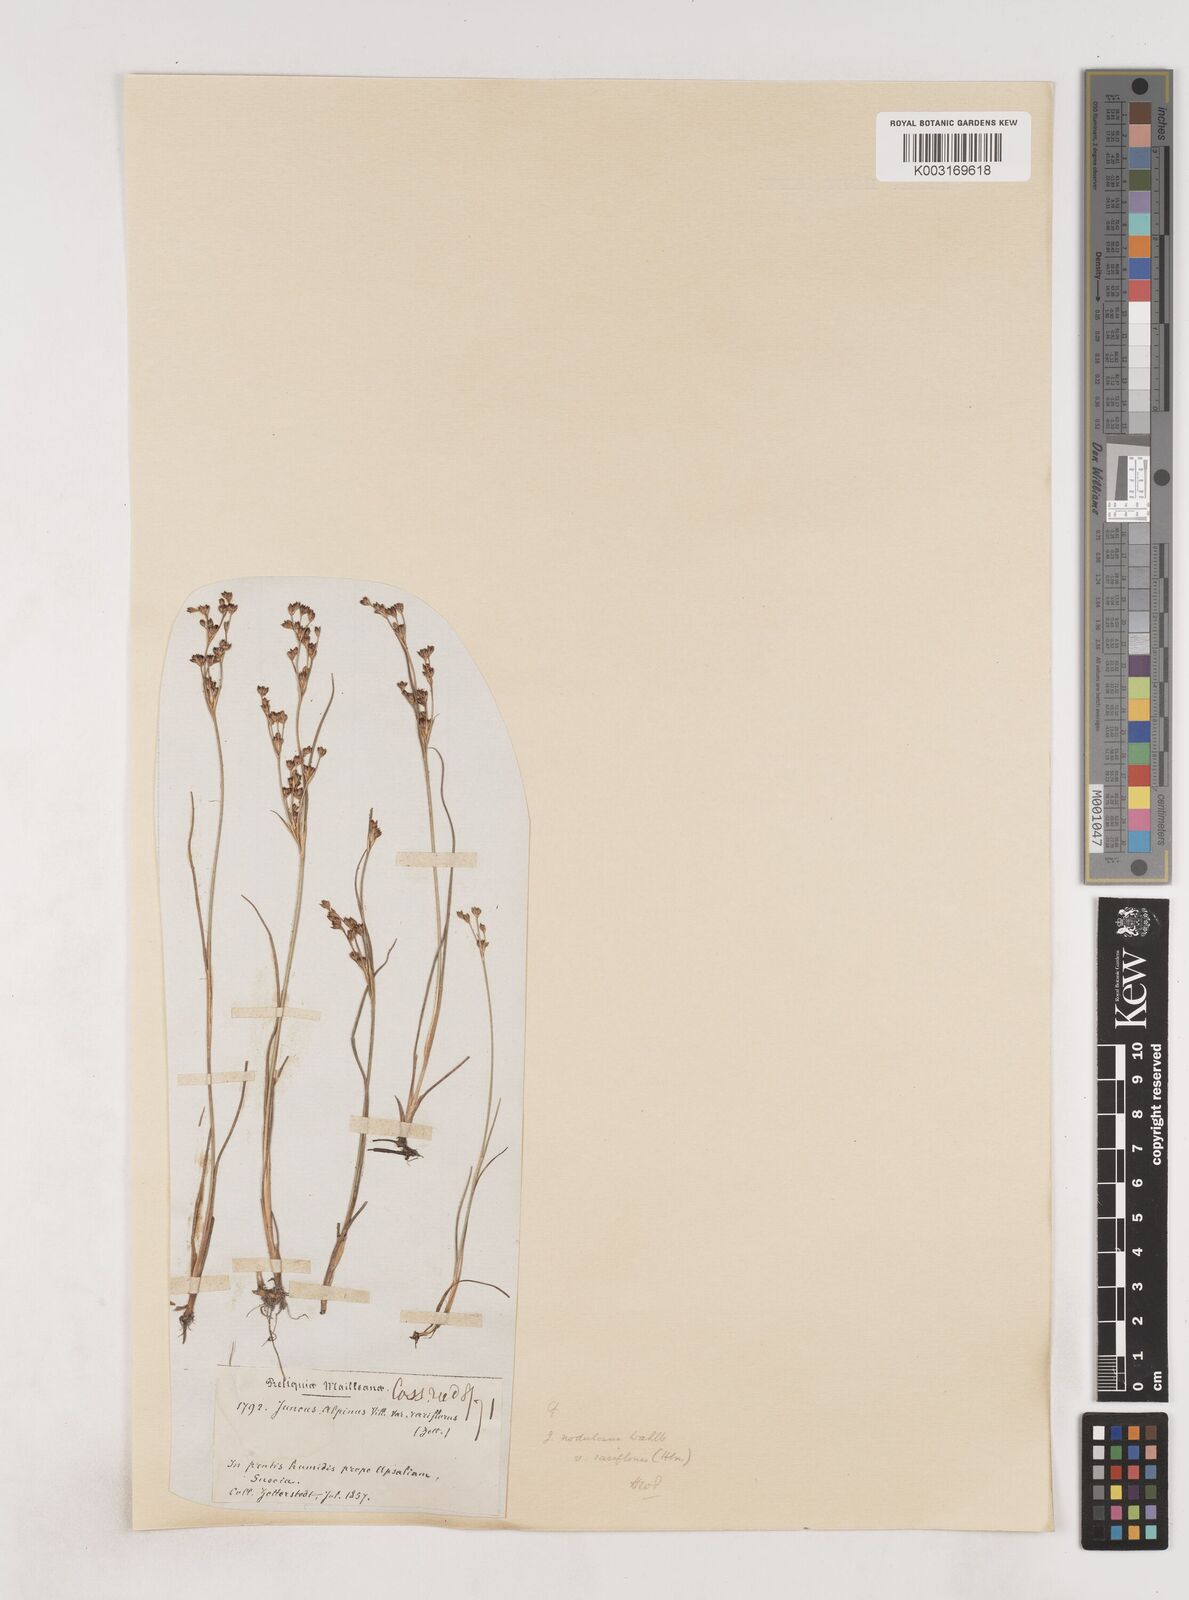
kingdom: Plantae
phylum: Tracheophyta
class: Liliopsida
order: Poales
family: Juncaceae
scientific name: Juncaceae
